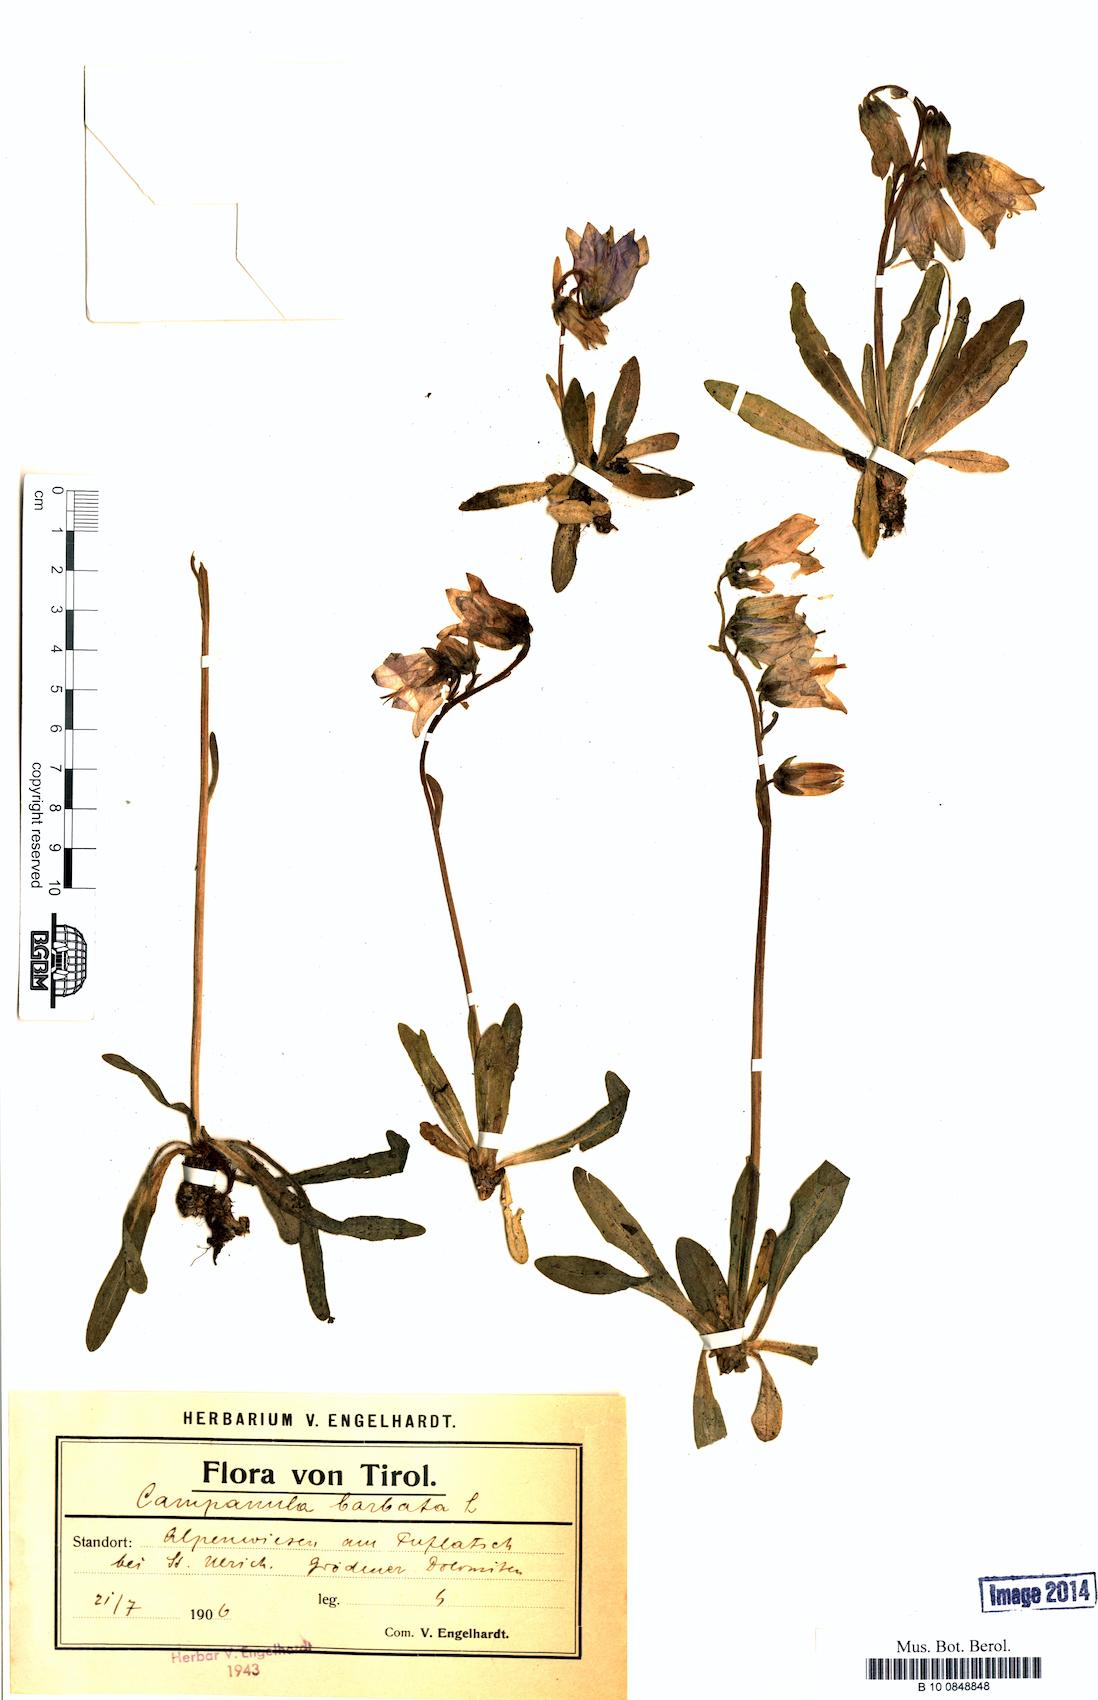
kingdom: Plantae
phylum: Tracheophyta
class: Magnoliopsida
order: Asterales
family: Campanulaceae
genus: Campanula
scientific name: Campanula barbata
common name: Bearded bellflower
